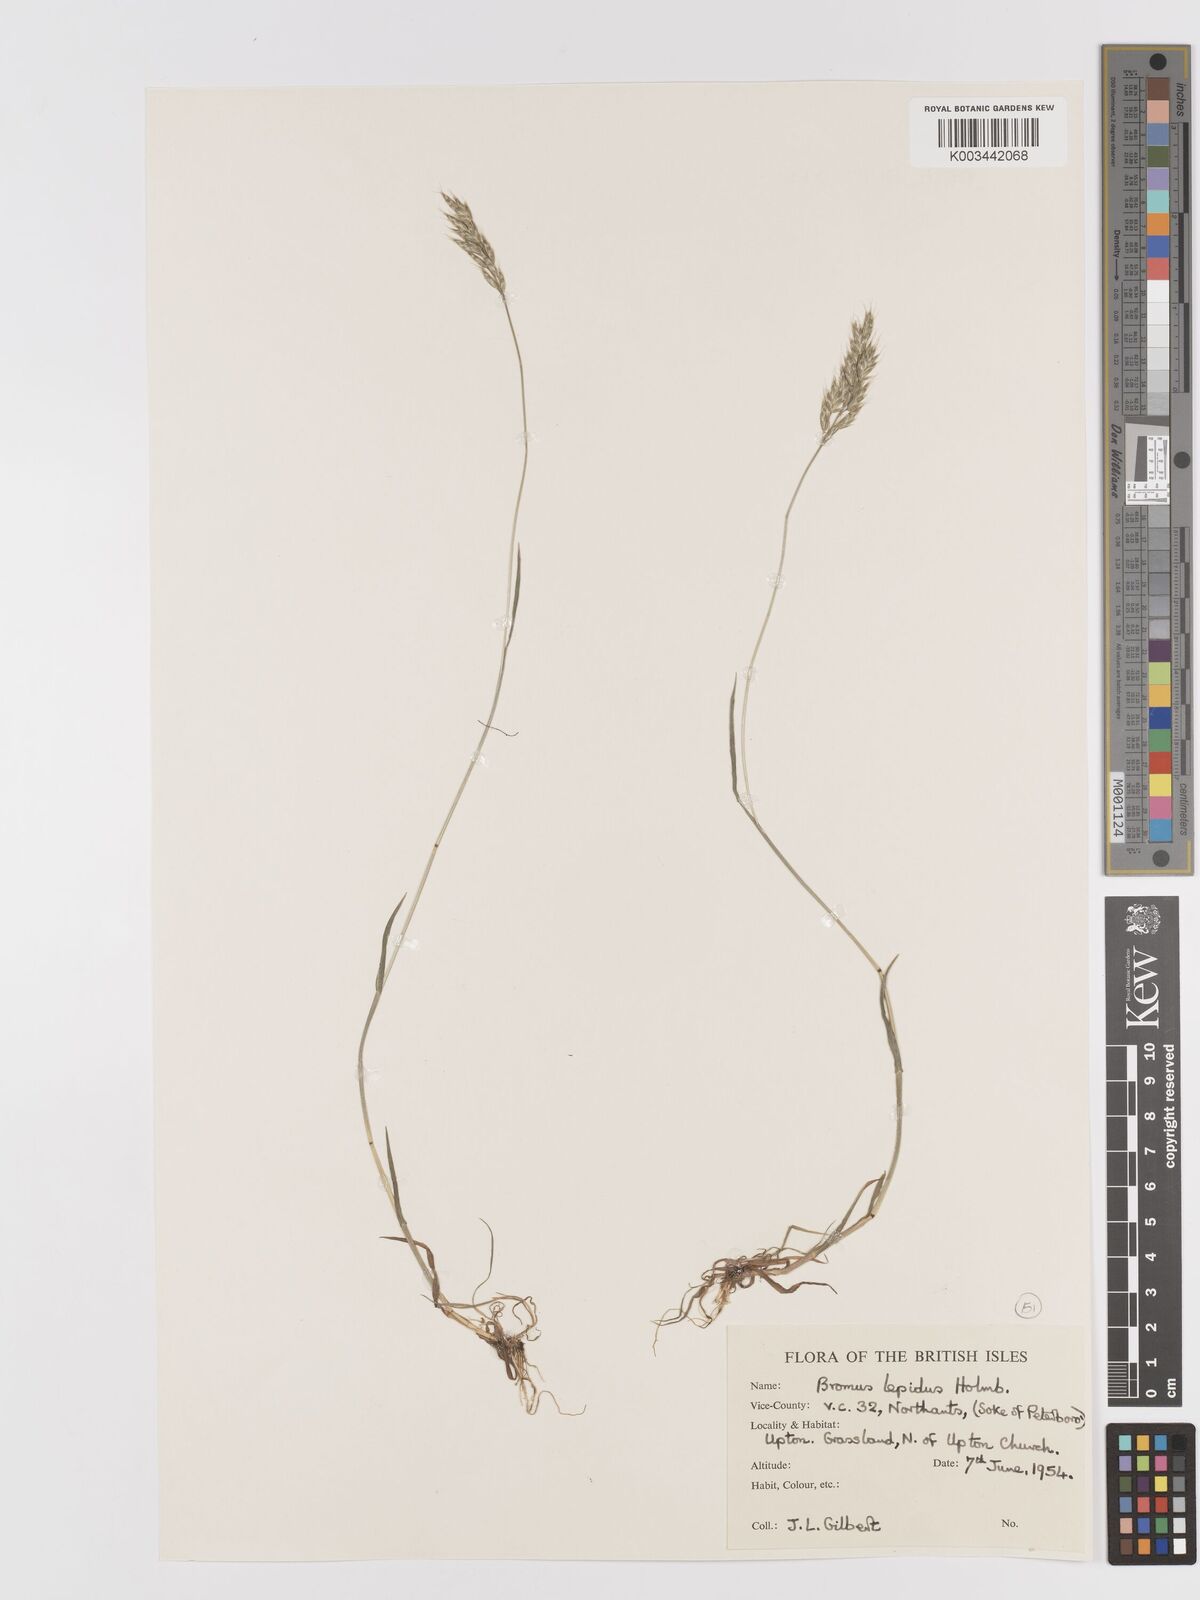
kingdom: Plantae
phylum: Tracheophyta
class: Liliopsida
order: Poales
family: Poaceae
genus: Bromus
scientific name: Bromus lepidus
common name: Slender soft-brome
